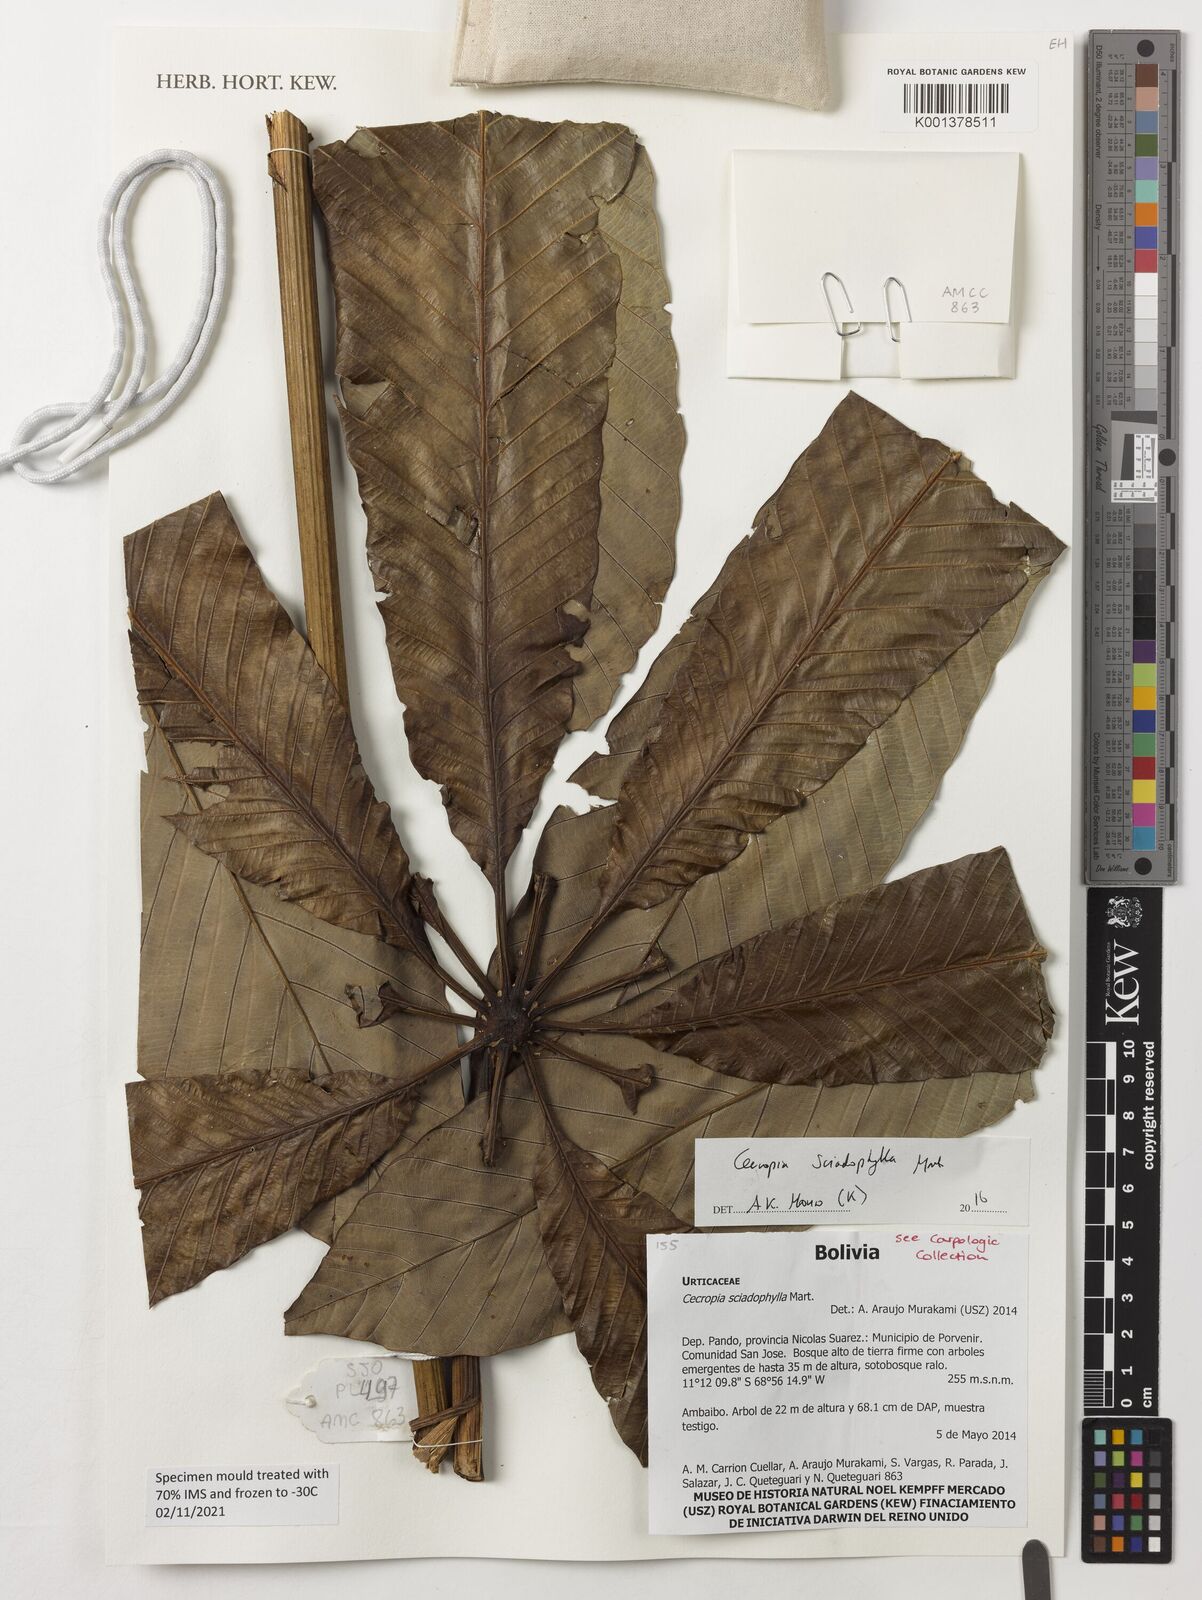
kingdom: Plantae
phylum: Tracheophyta
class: Magnoliopsida
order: Rosales
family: Urticaceae
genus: Cecropia
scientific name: Cecropia sciadophylla
